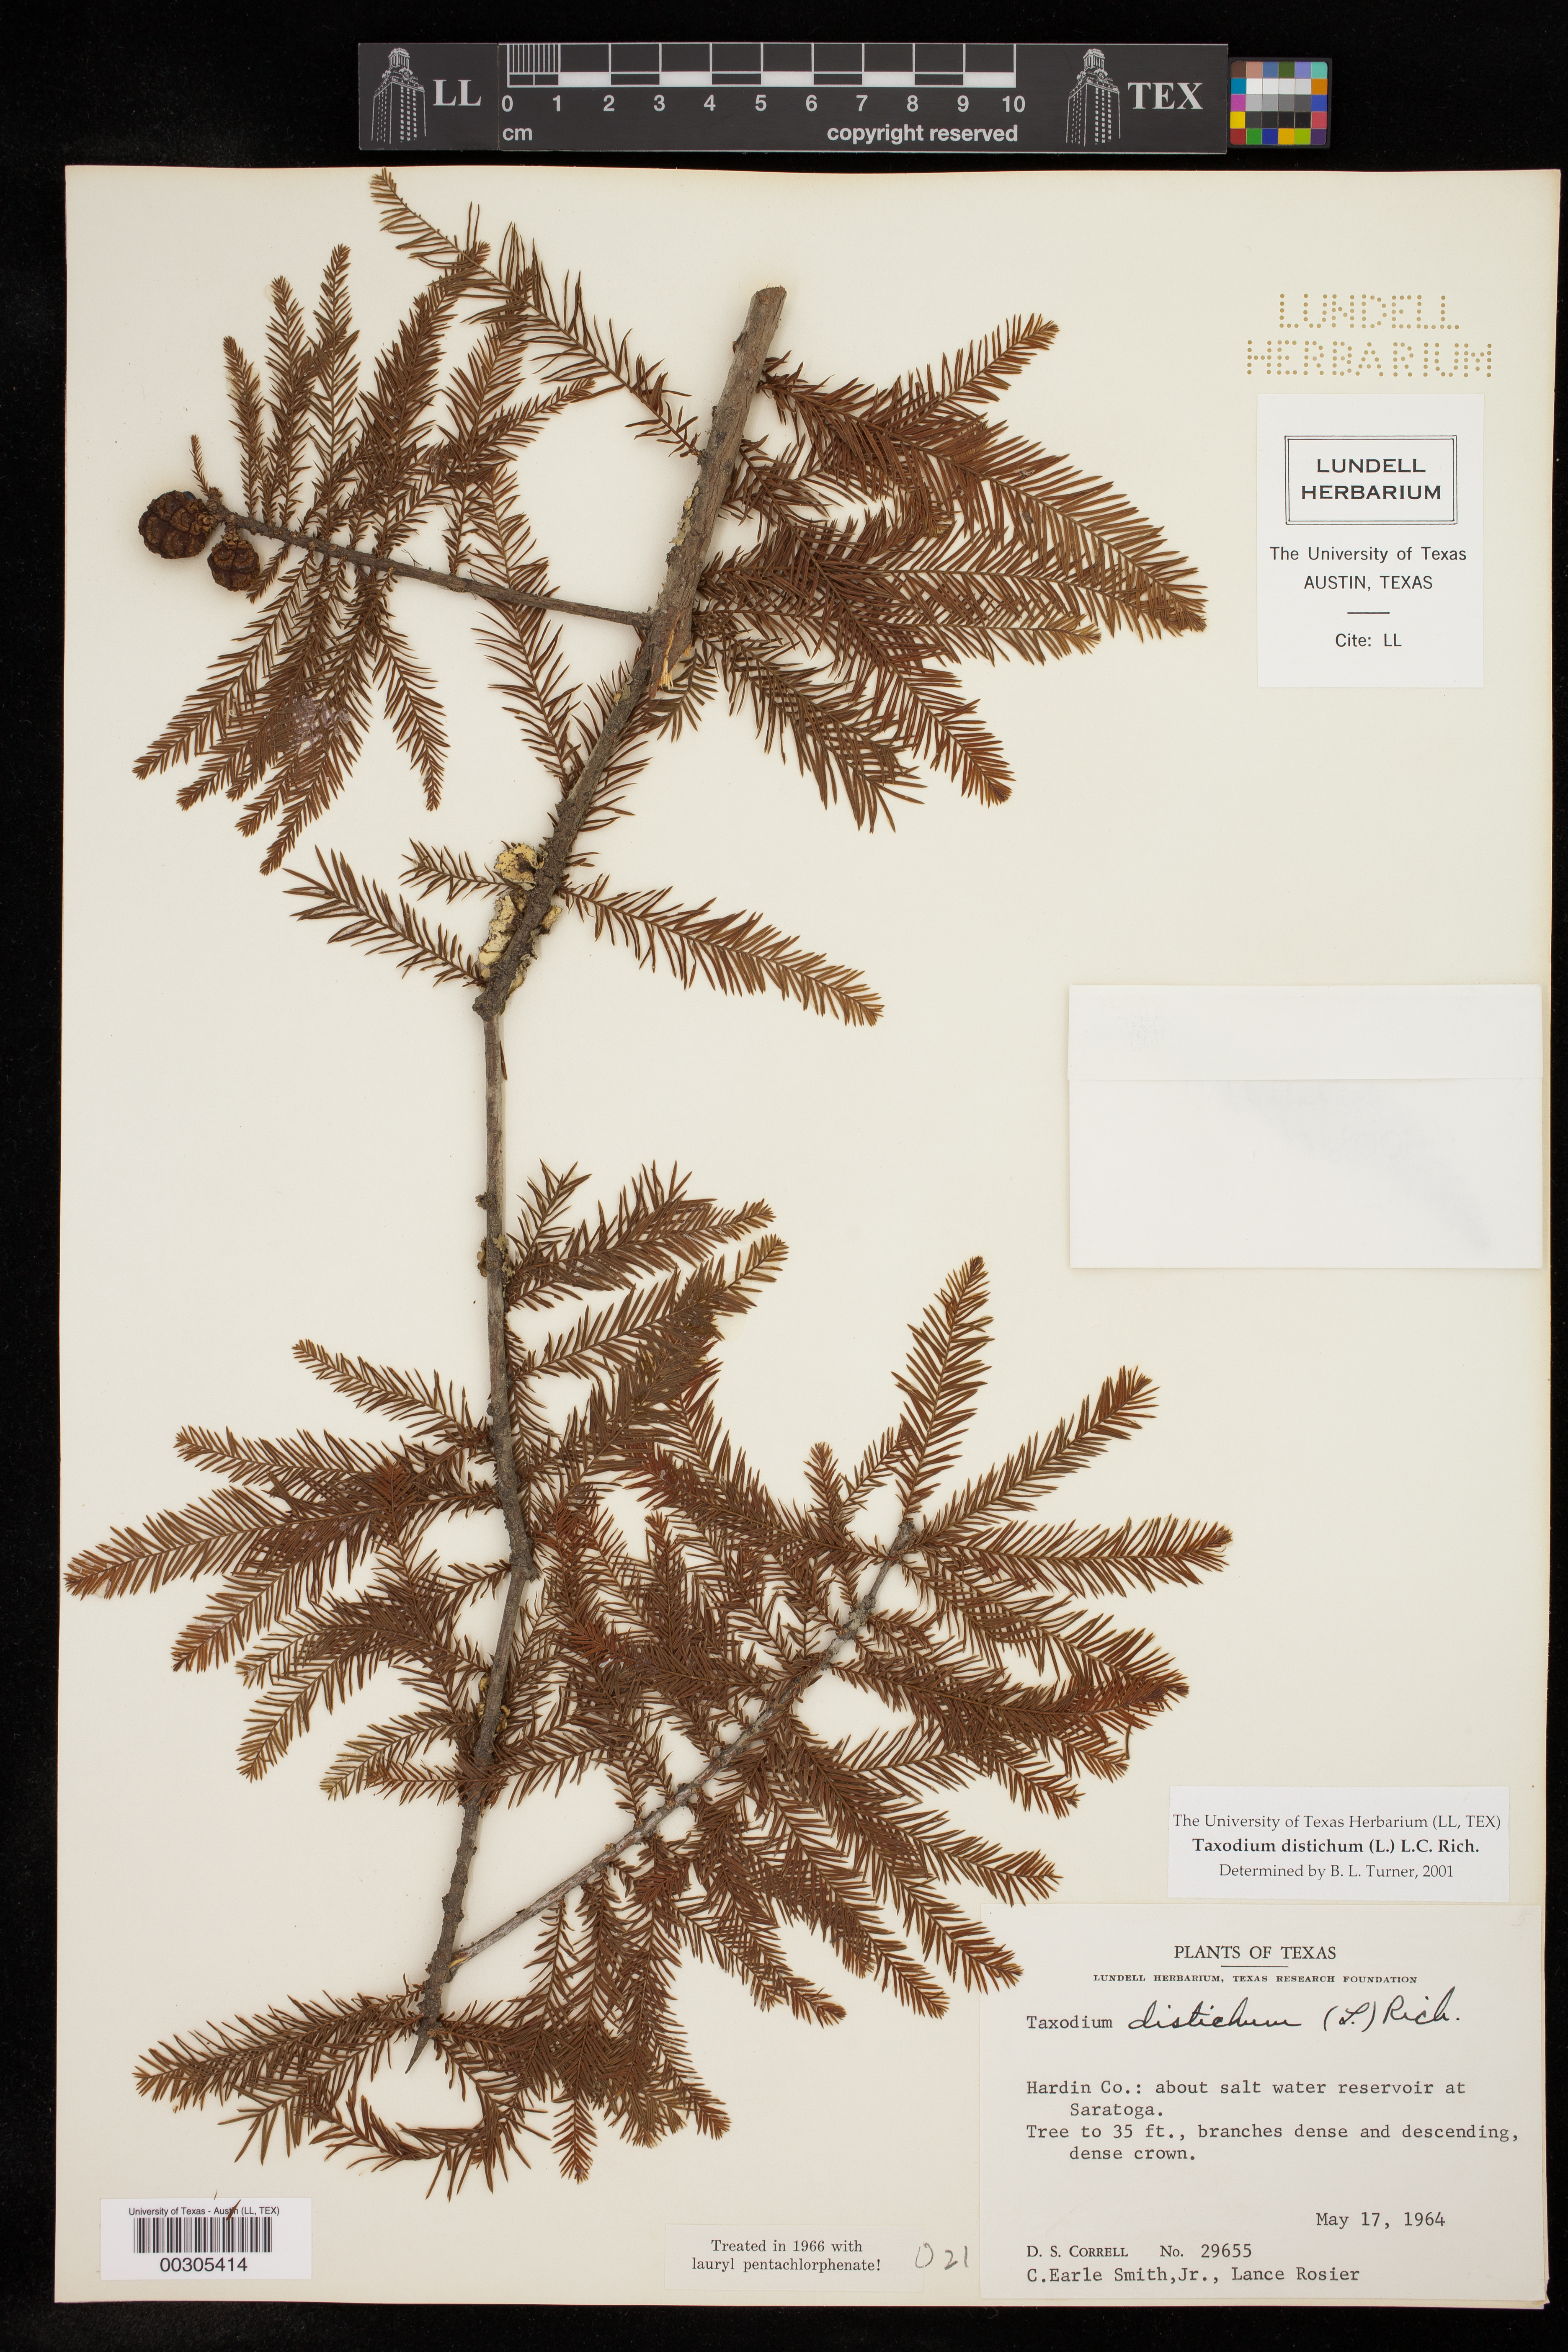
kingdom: Plantae
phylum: Tracheophyta
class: Pinopsida
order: Pinales
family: Cupressaceae
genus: Taxodium
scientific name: Taxodium distichum
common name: Bald cypress
